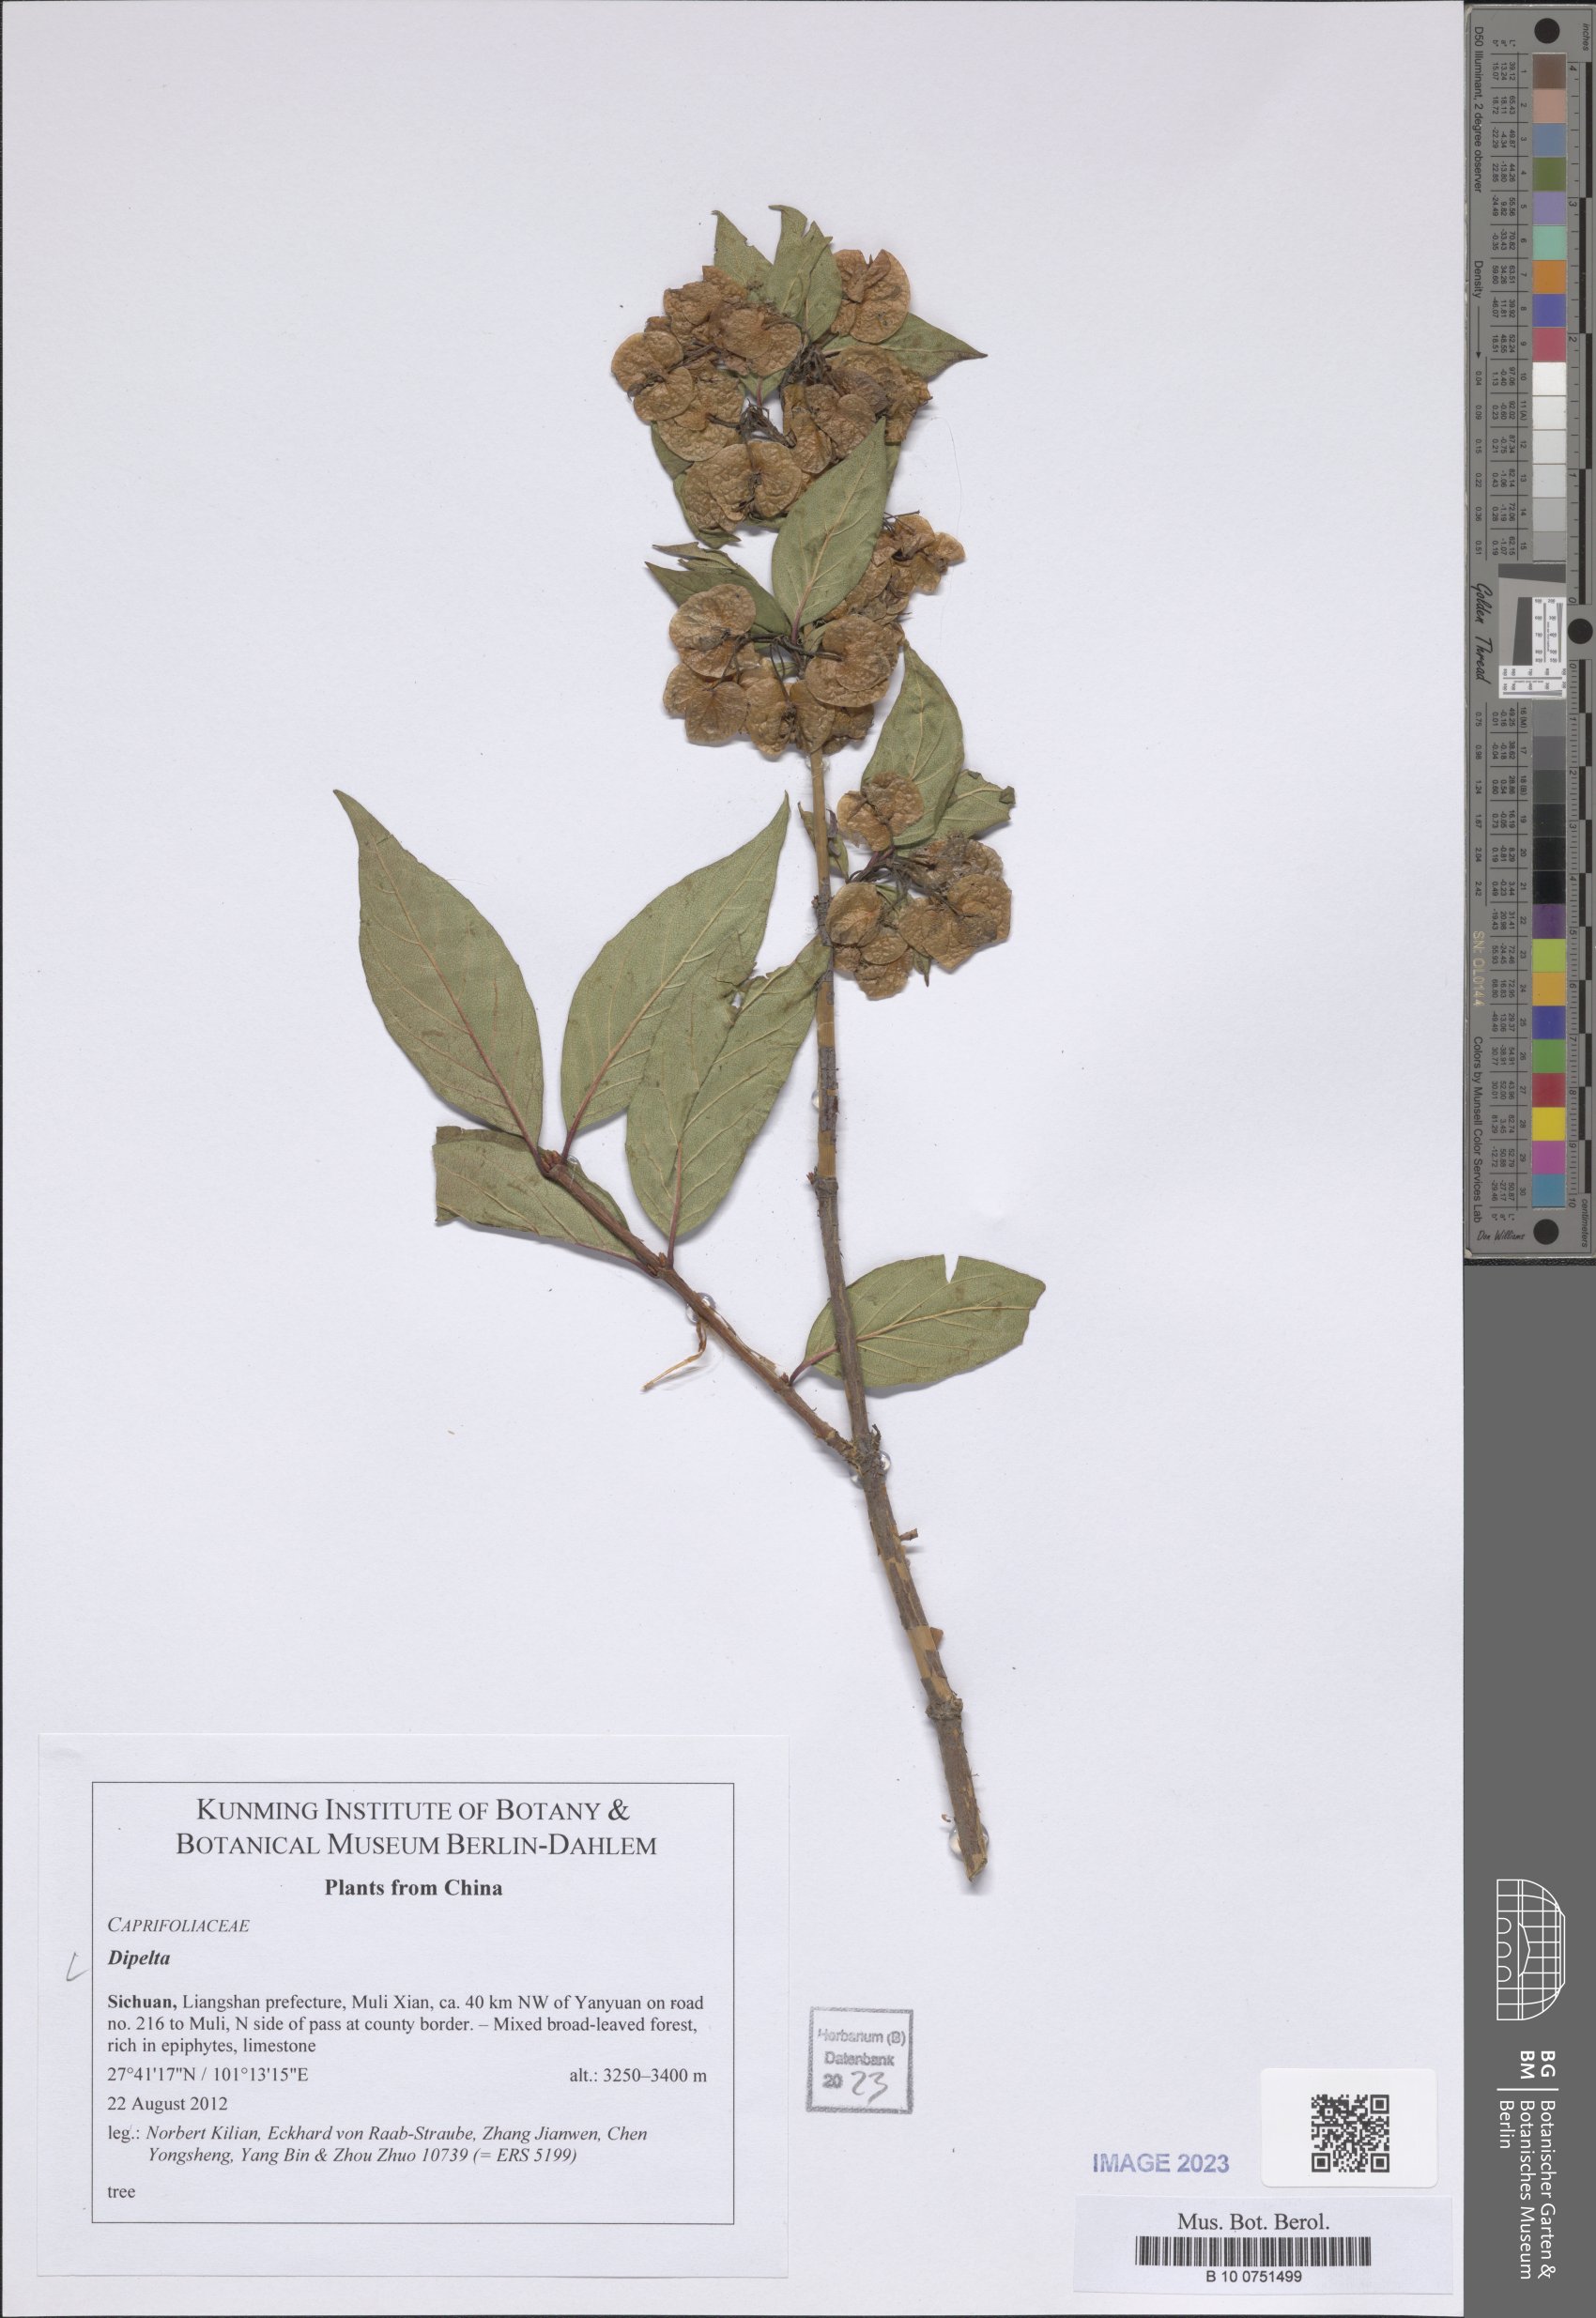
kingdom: Plantae
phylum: Tracheophyta
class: Magnoliopsida
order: Dipsacales
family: Caprifoliaceae
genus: Dipelta
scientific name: Dipelta
